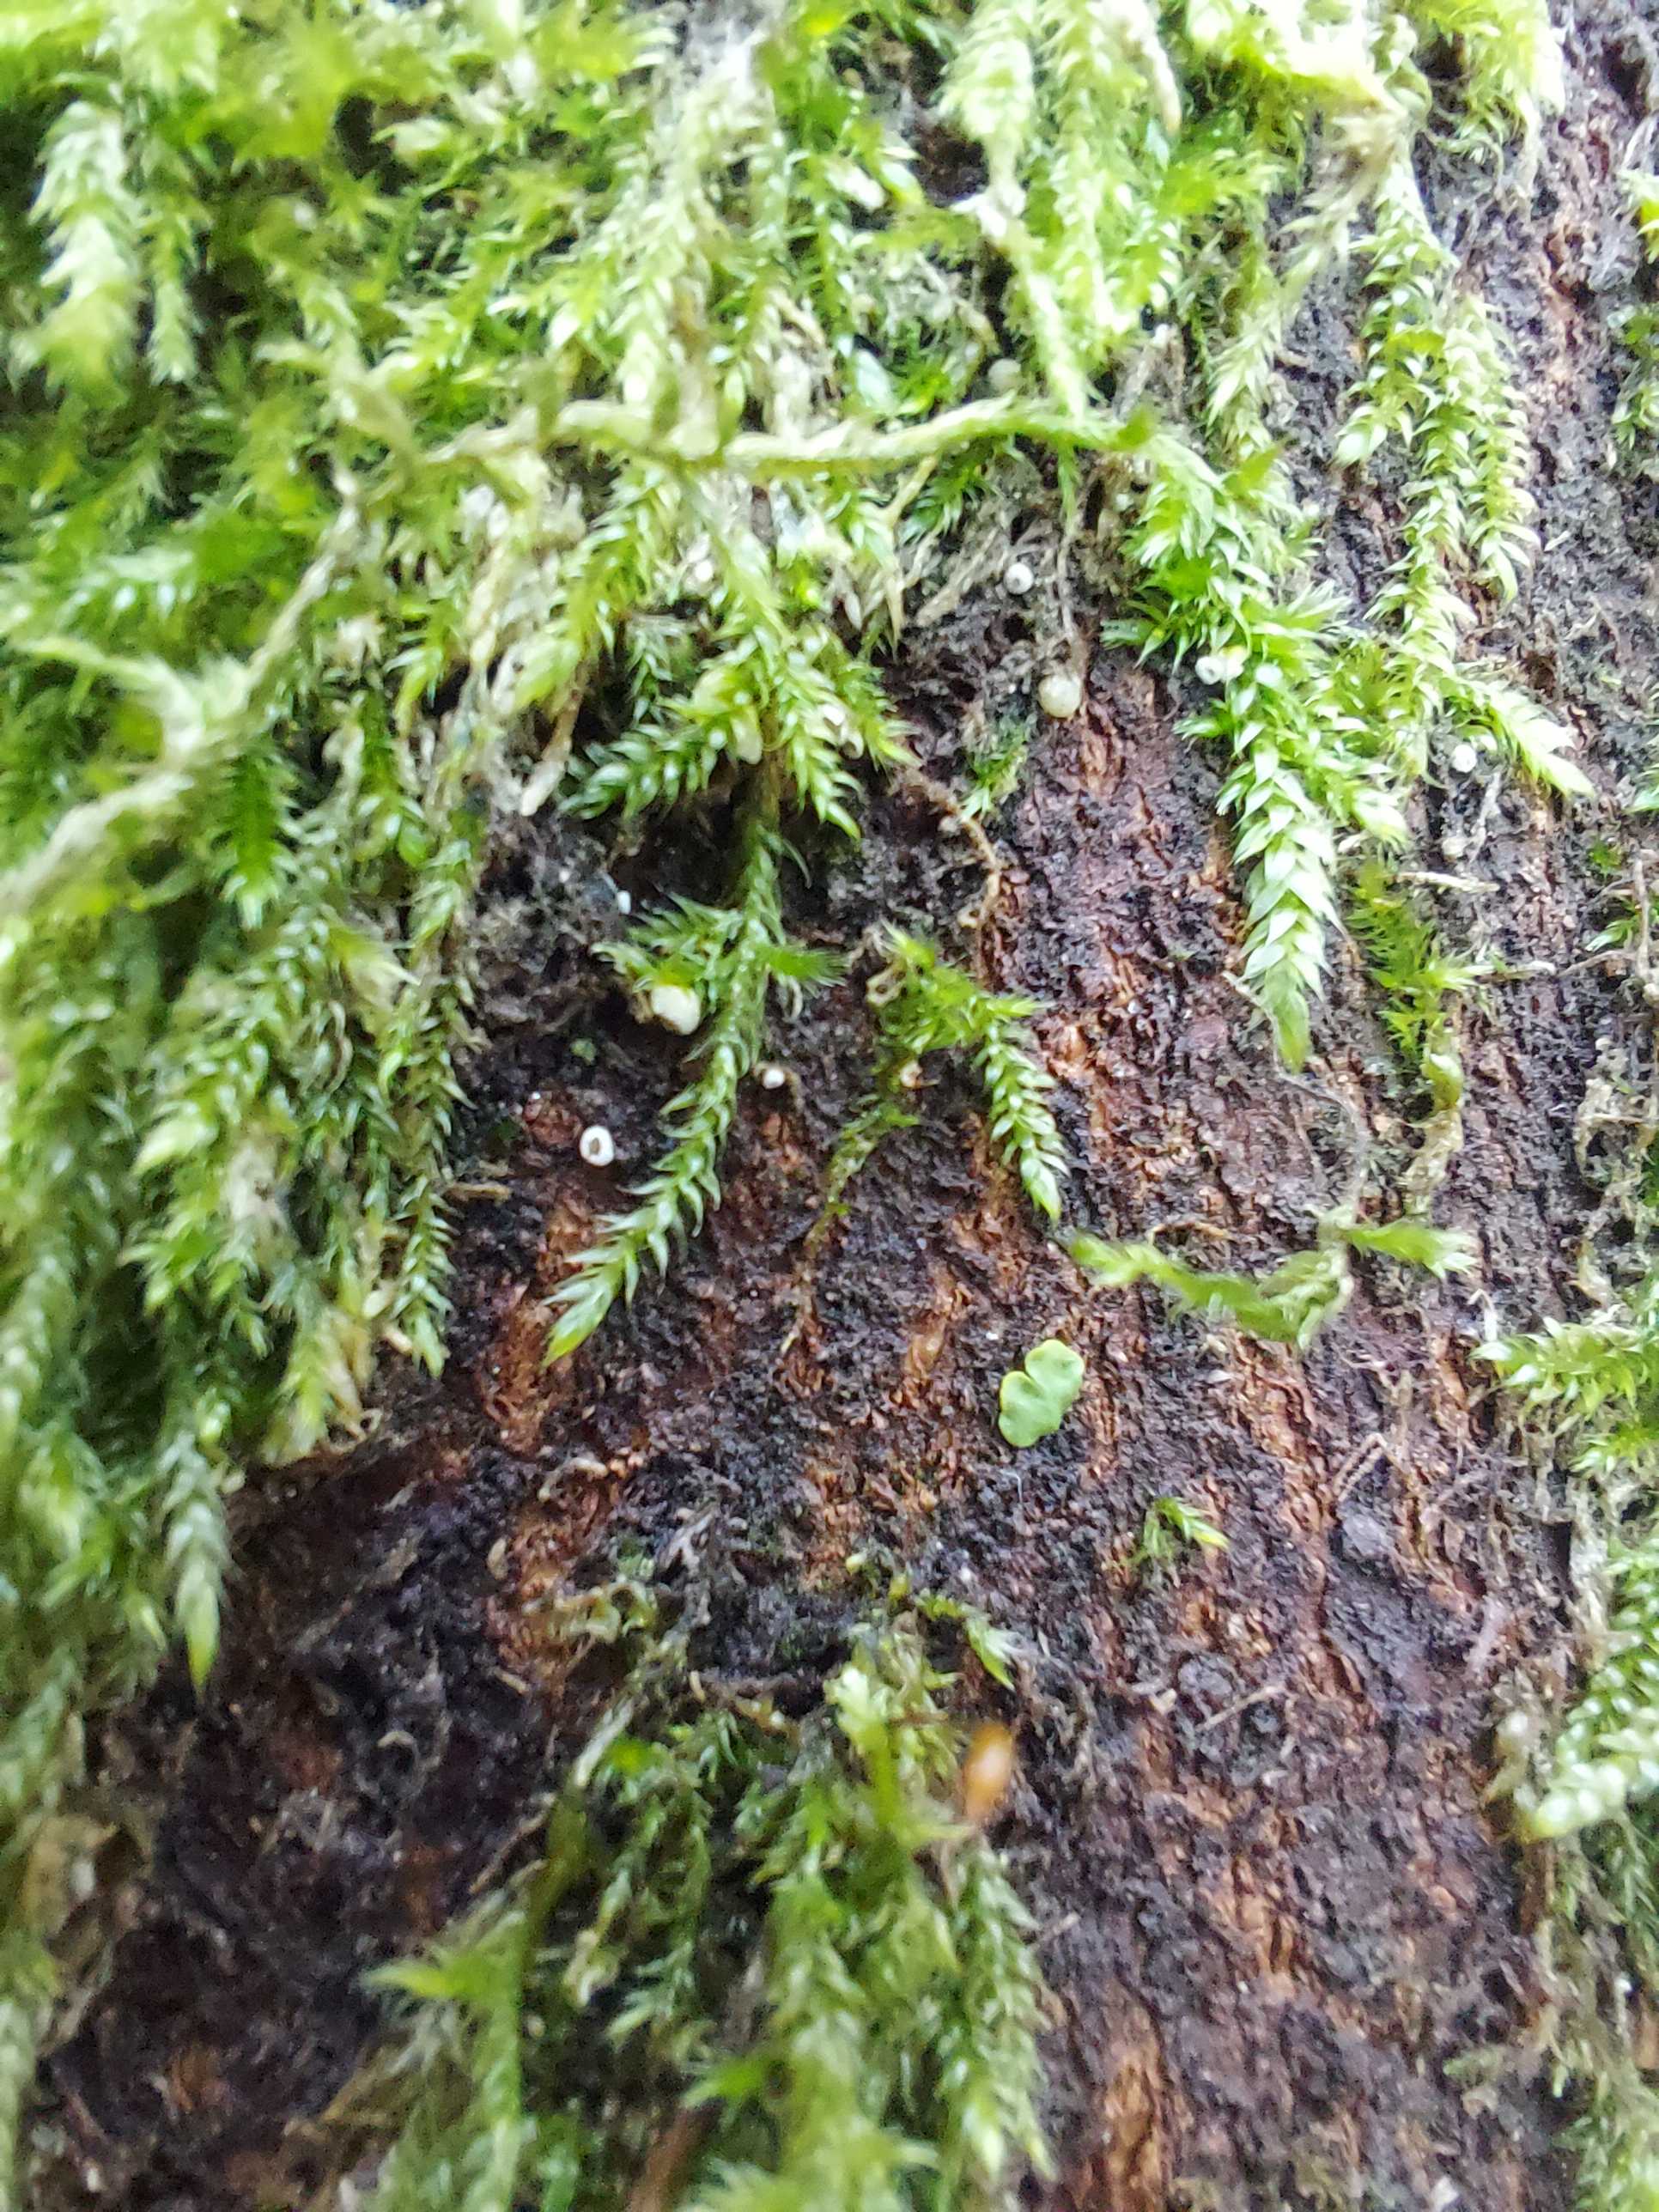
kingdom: Fungi
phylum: Basidiomycota
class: Agaricomycetes
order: Agaricales
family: Chromocyphellaceae
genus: Chromocyphella
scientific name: Chromocyphella muscicola
